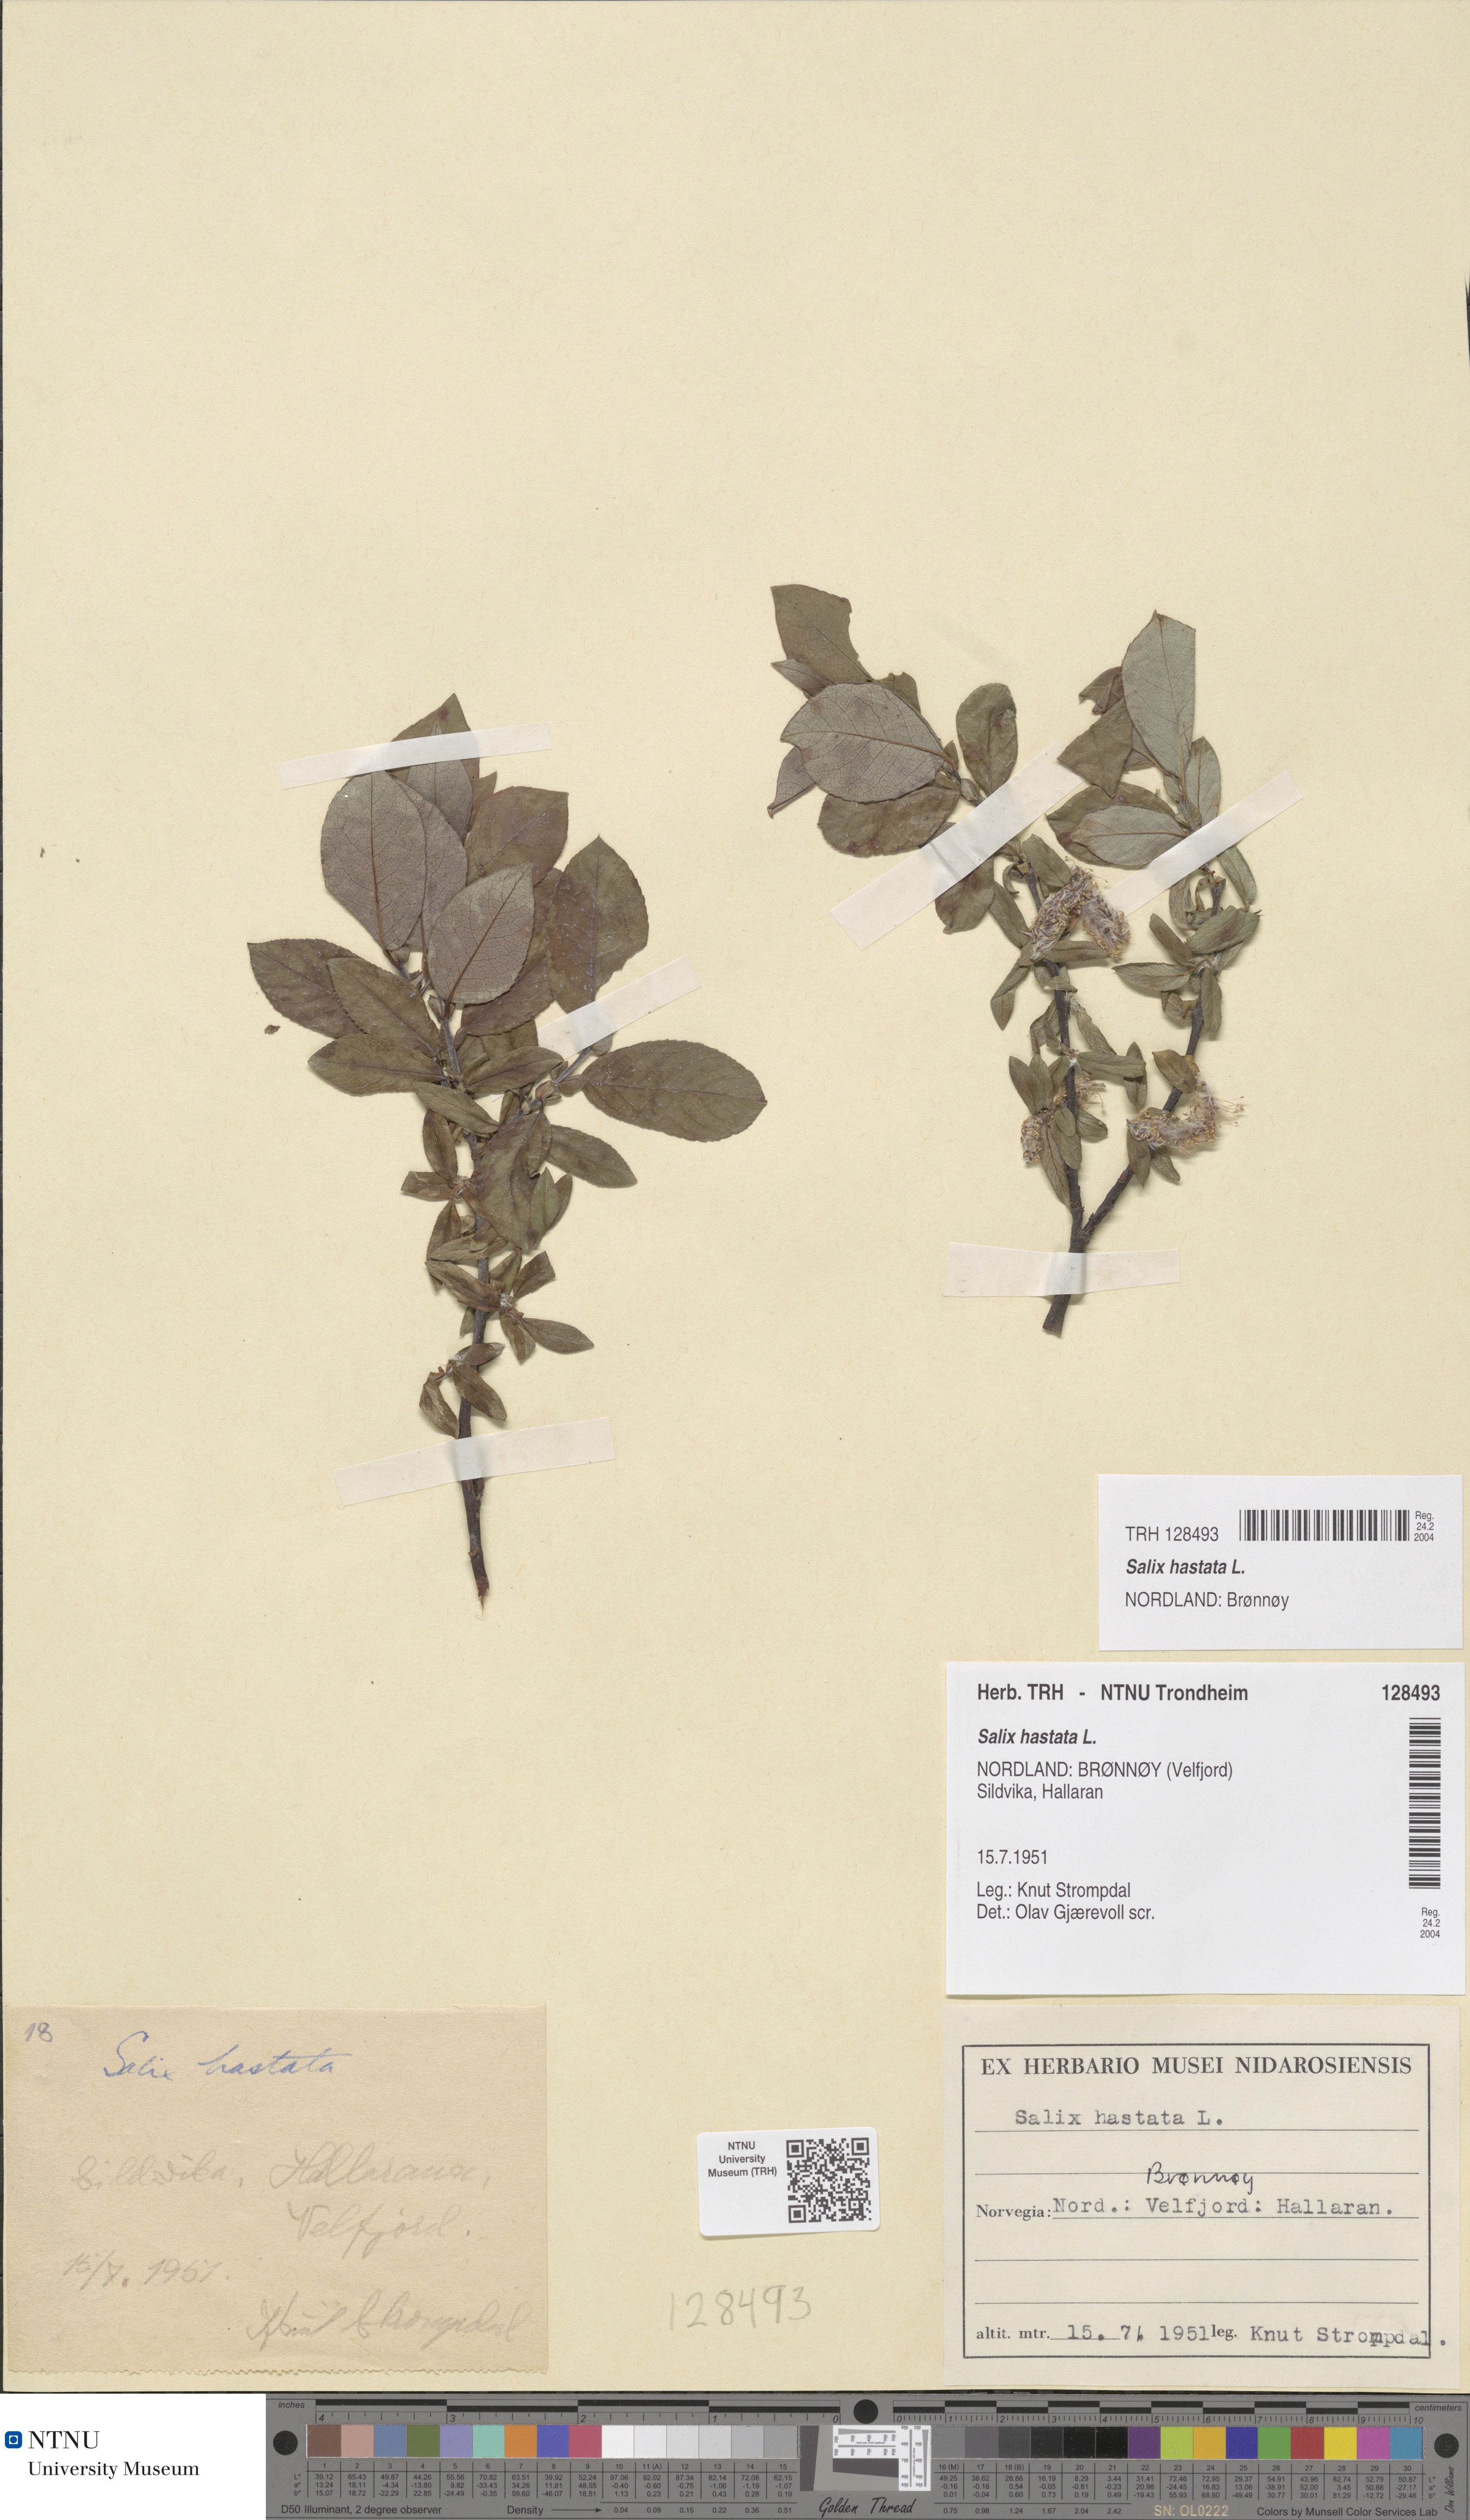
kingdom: Plantae
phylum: Tracheophyta
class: Magnoliopsida
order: Malpighiales
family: Salicaceae
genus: Salix
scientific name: Salix hastata
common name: Halberd willow
